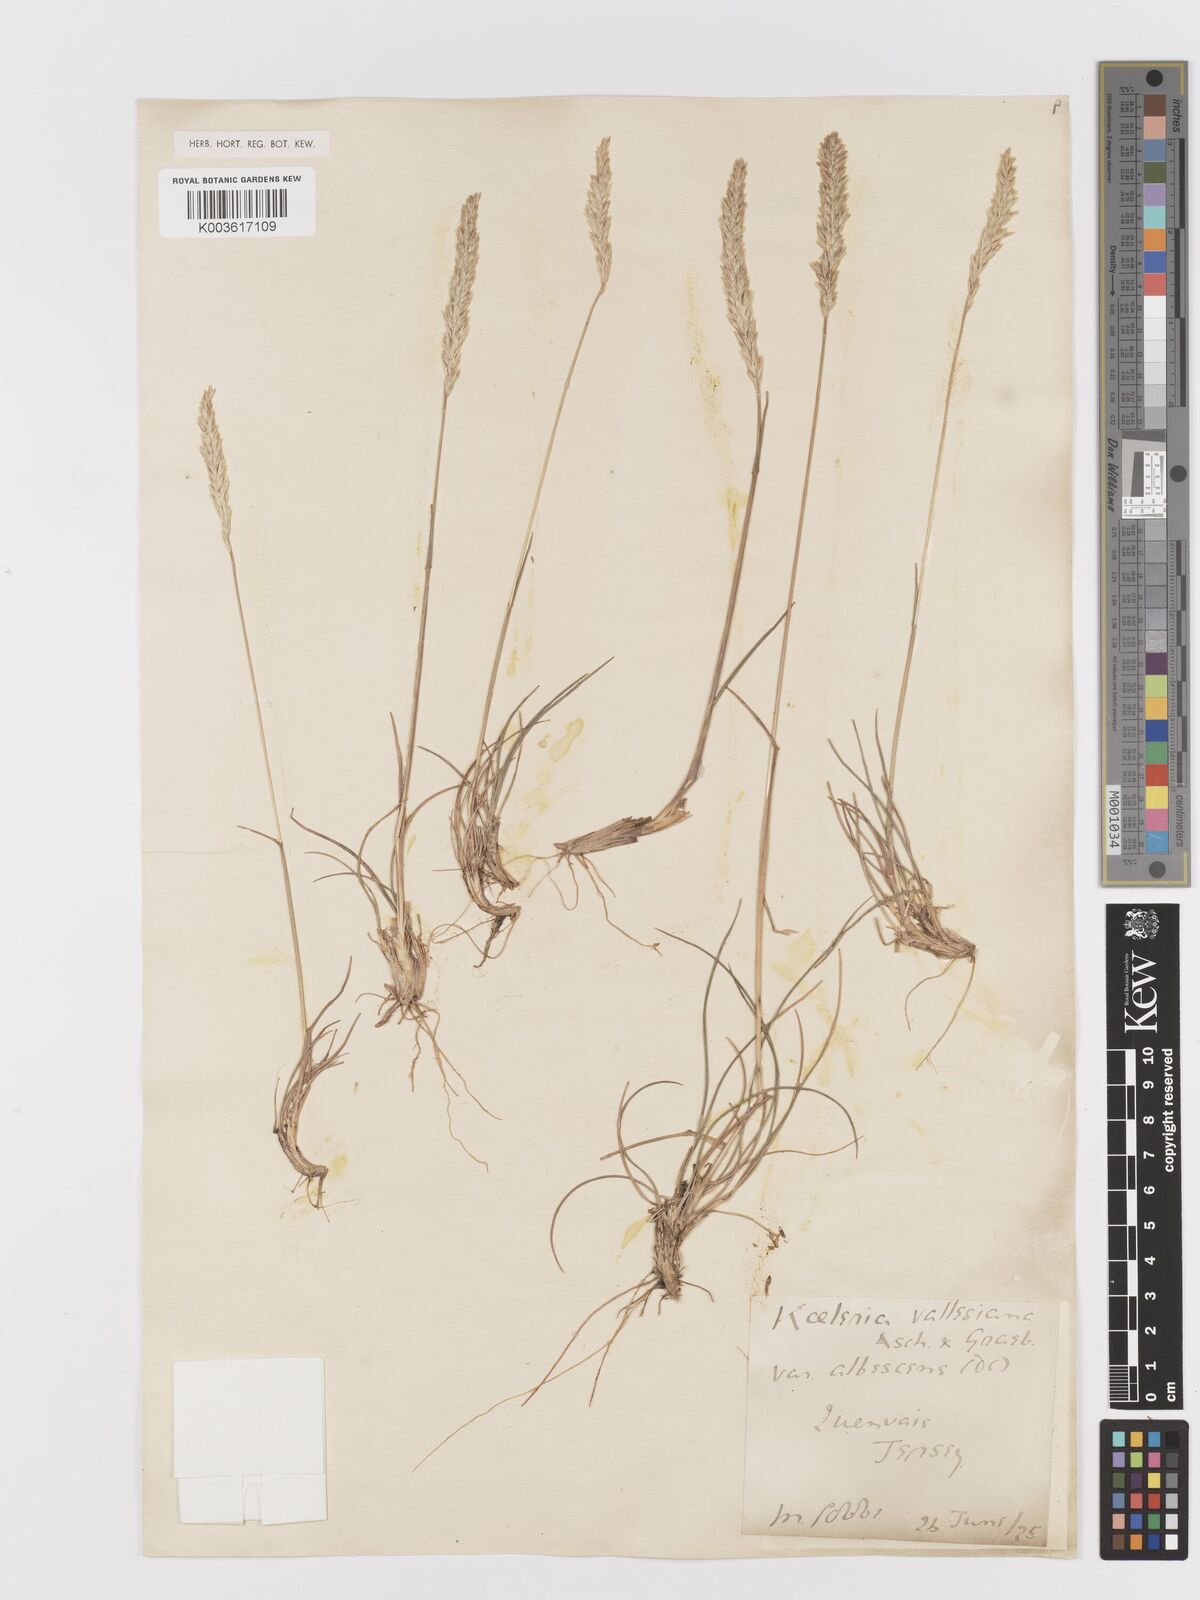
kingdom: Plantae
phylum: Tracheophyta
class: Liliopsida
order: Poales
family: Poaceae
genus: Koeleria
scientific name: Koeleria macrantha
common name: Crested hair-grass
